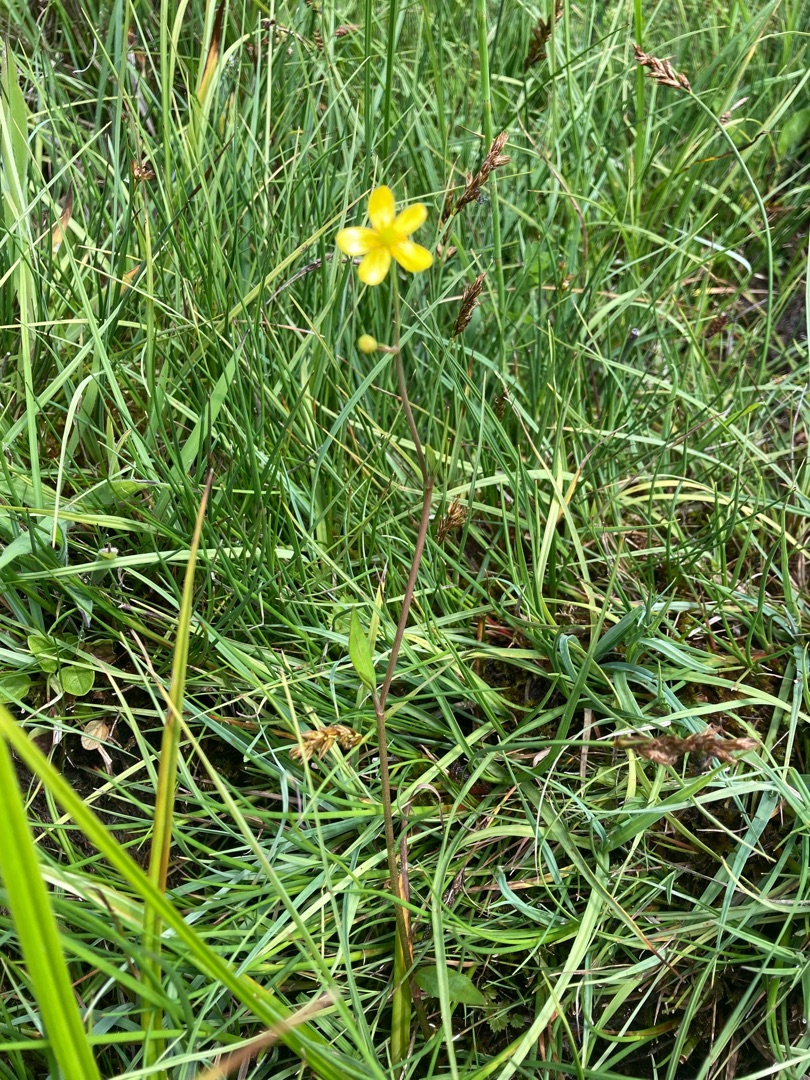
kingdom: Plantae
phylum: Tracheophyta
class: Magnoliopsida
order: Ranunculales
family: Ranunculaceae
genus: Ranunculus
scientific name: Ranunculus flammula
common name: Kær-ranunkel
